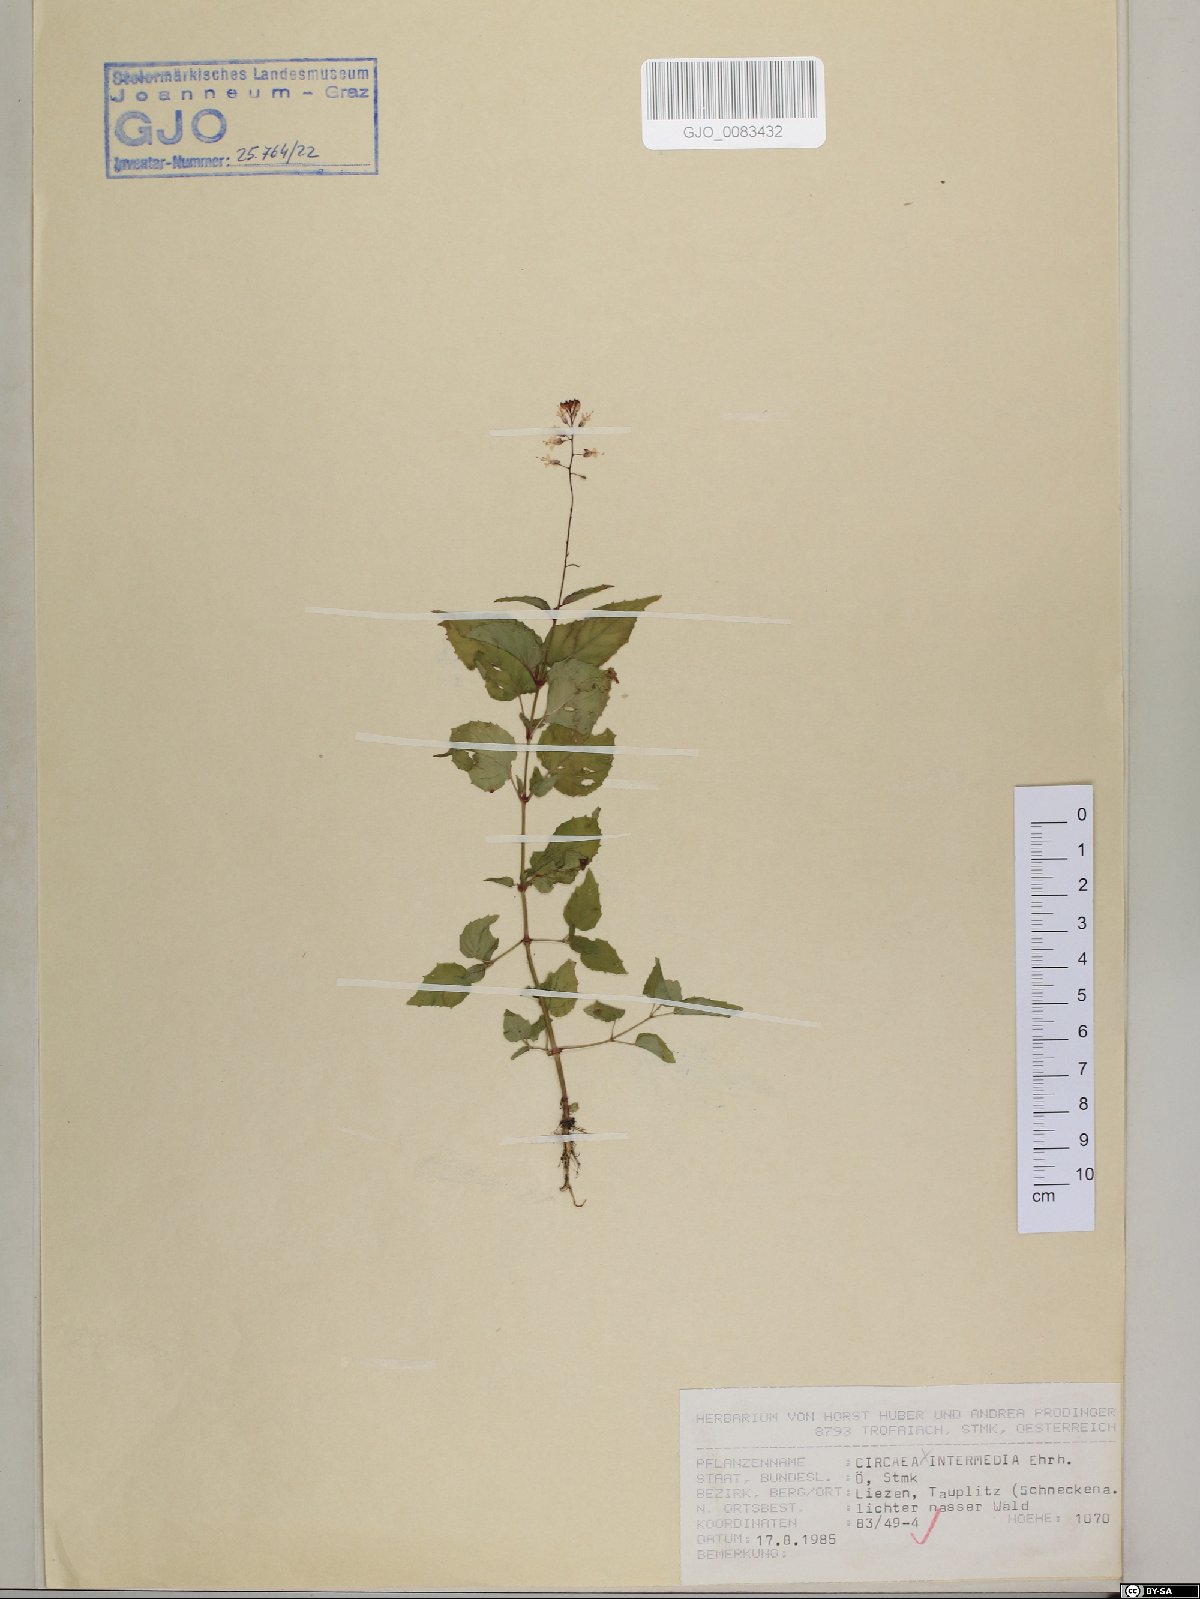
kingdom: Plantae
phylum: Tracheophyta
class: Magnoliopsida
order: Myrtales
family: Onagraceae
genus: Circaea
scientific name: Circaea intermedia
